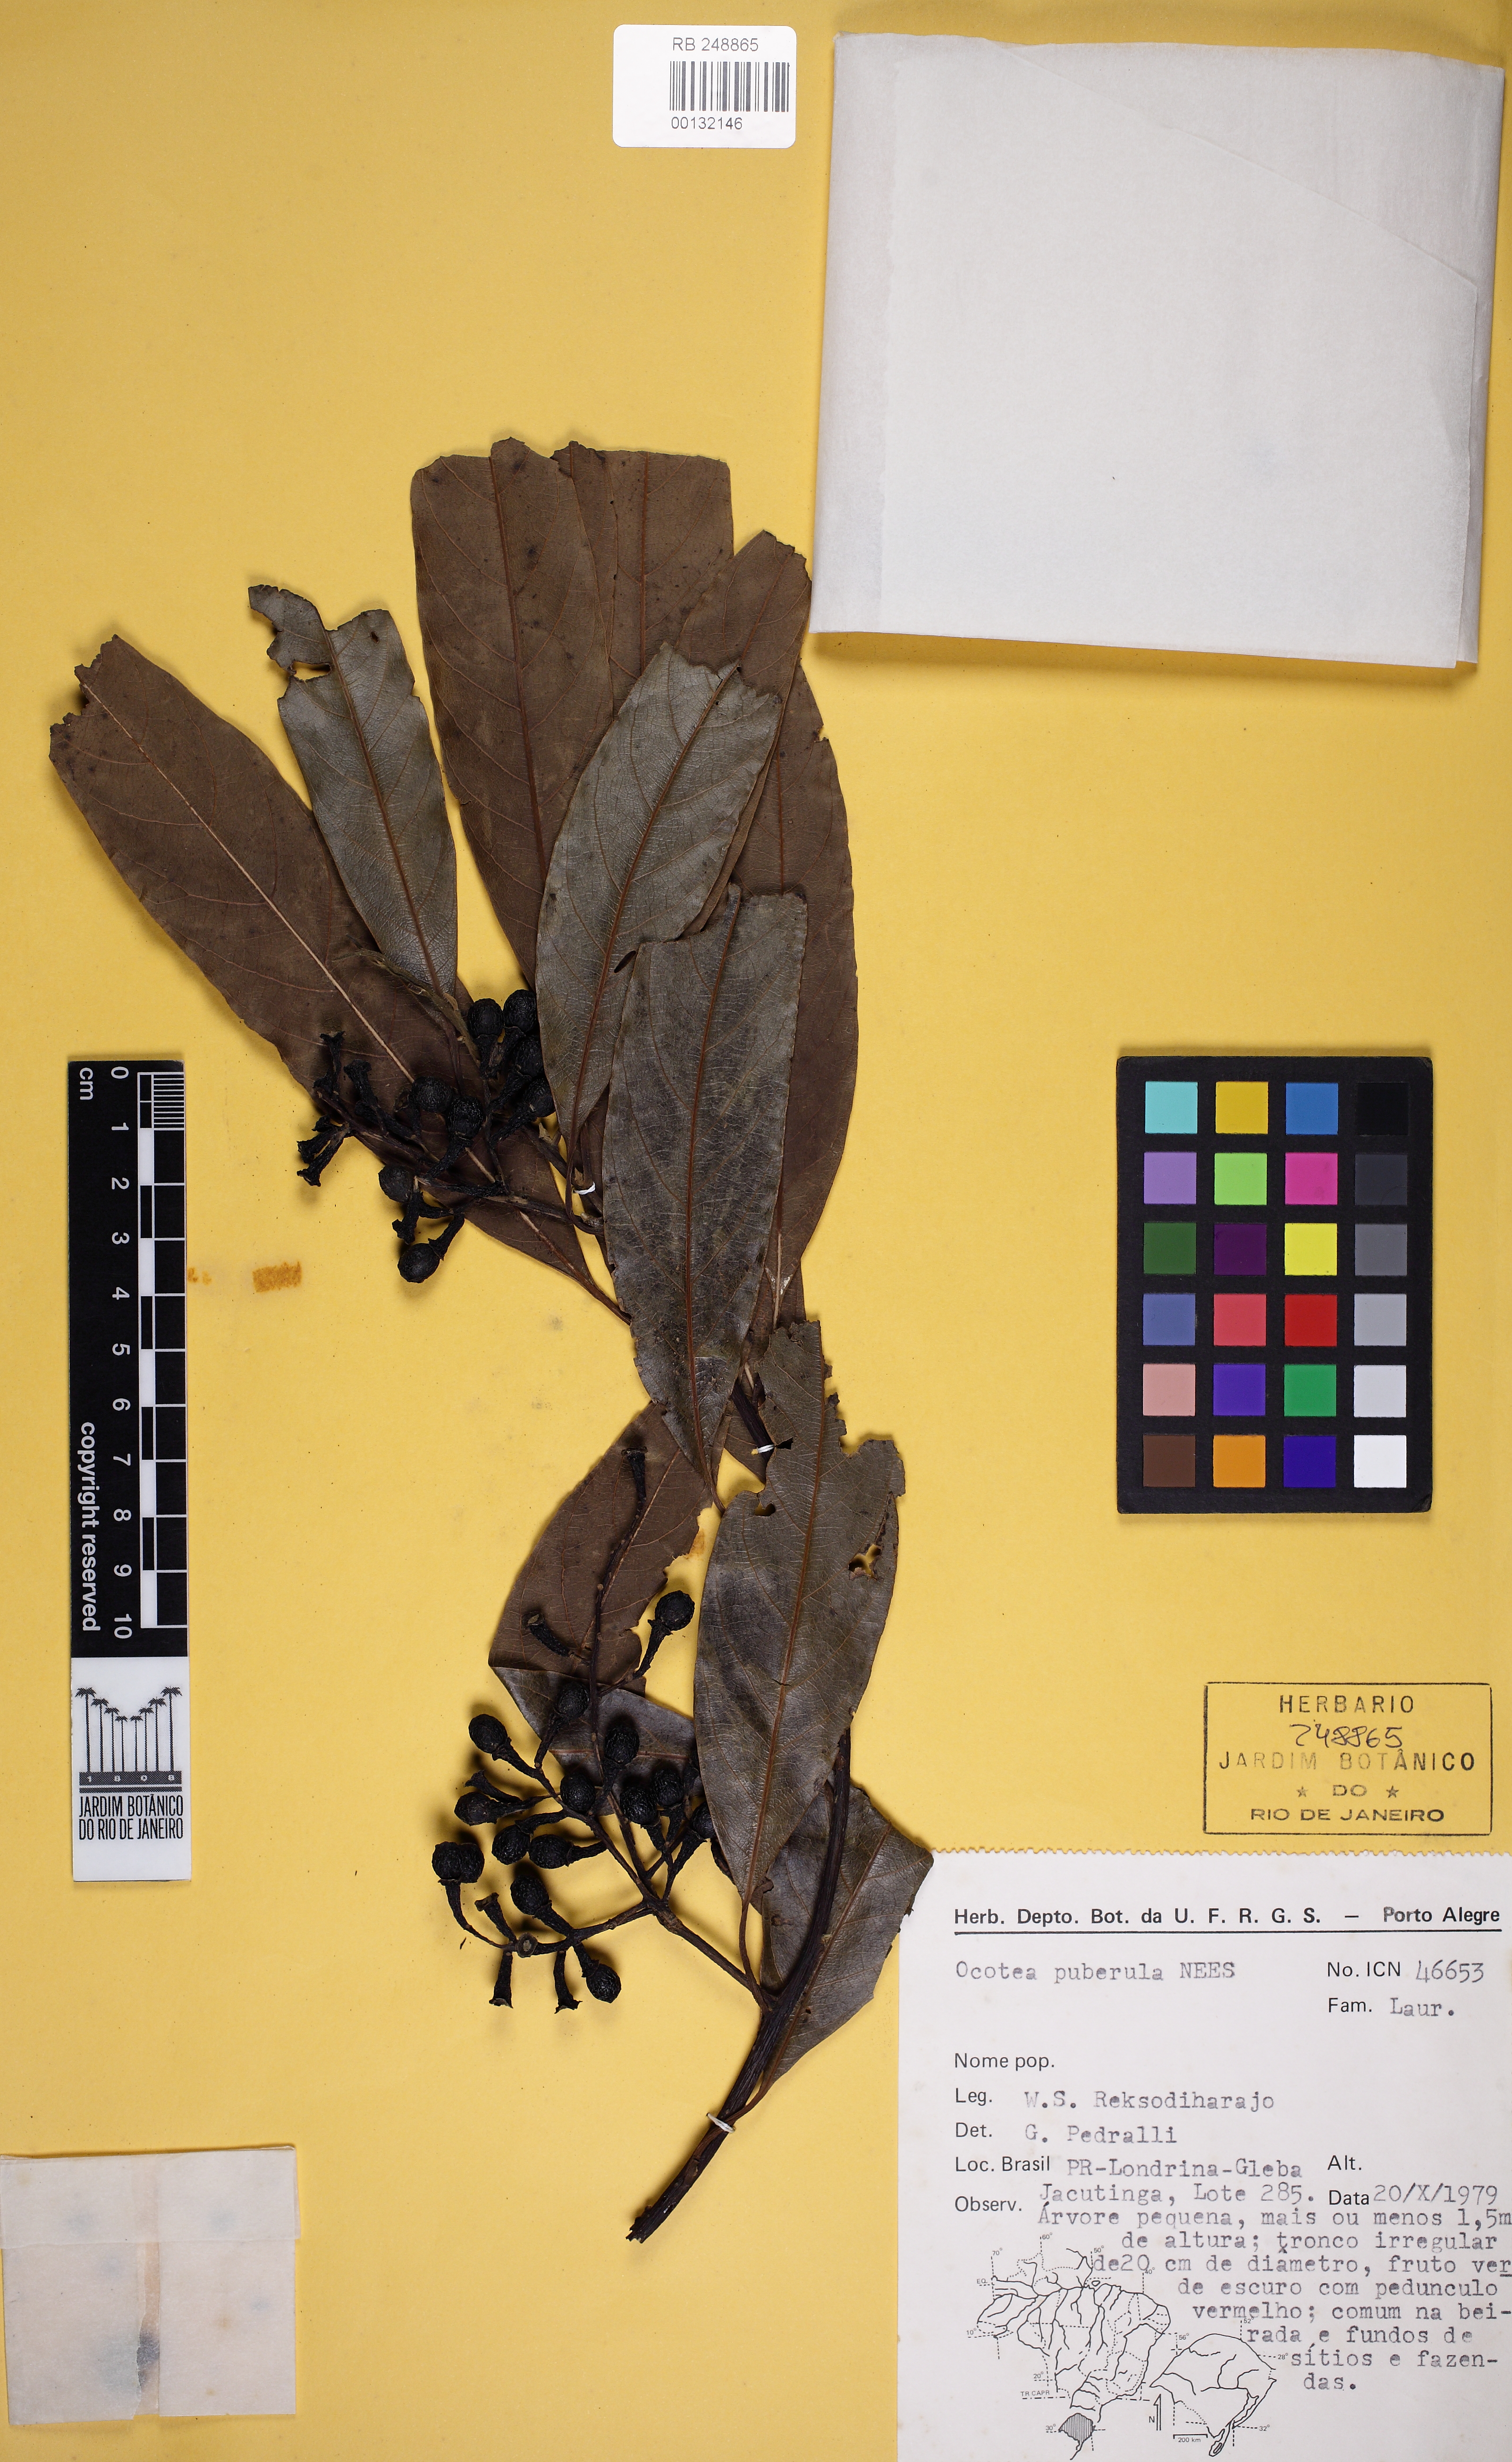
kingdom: Plantae
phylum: Tracheophyta
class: Magnoliopsida
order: Laurales
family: Lauraceae
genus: Ocotea
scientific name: Ocotea puberula
